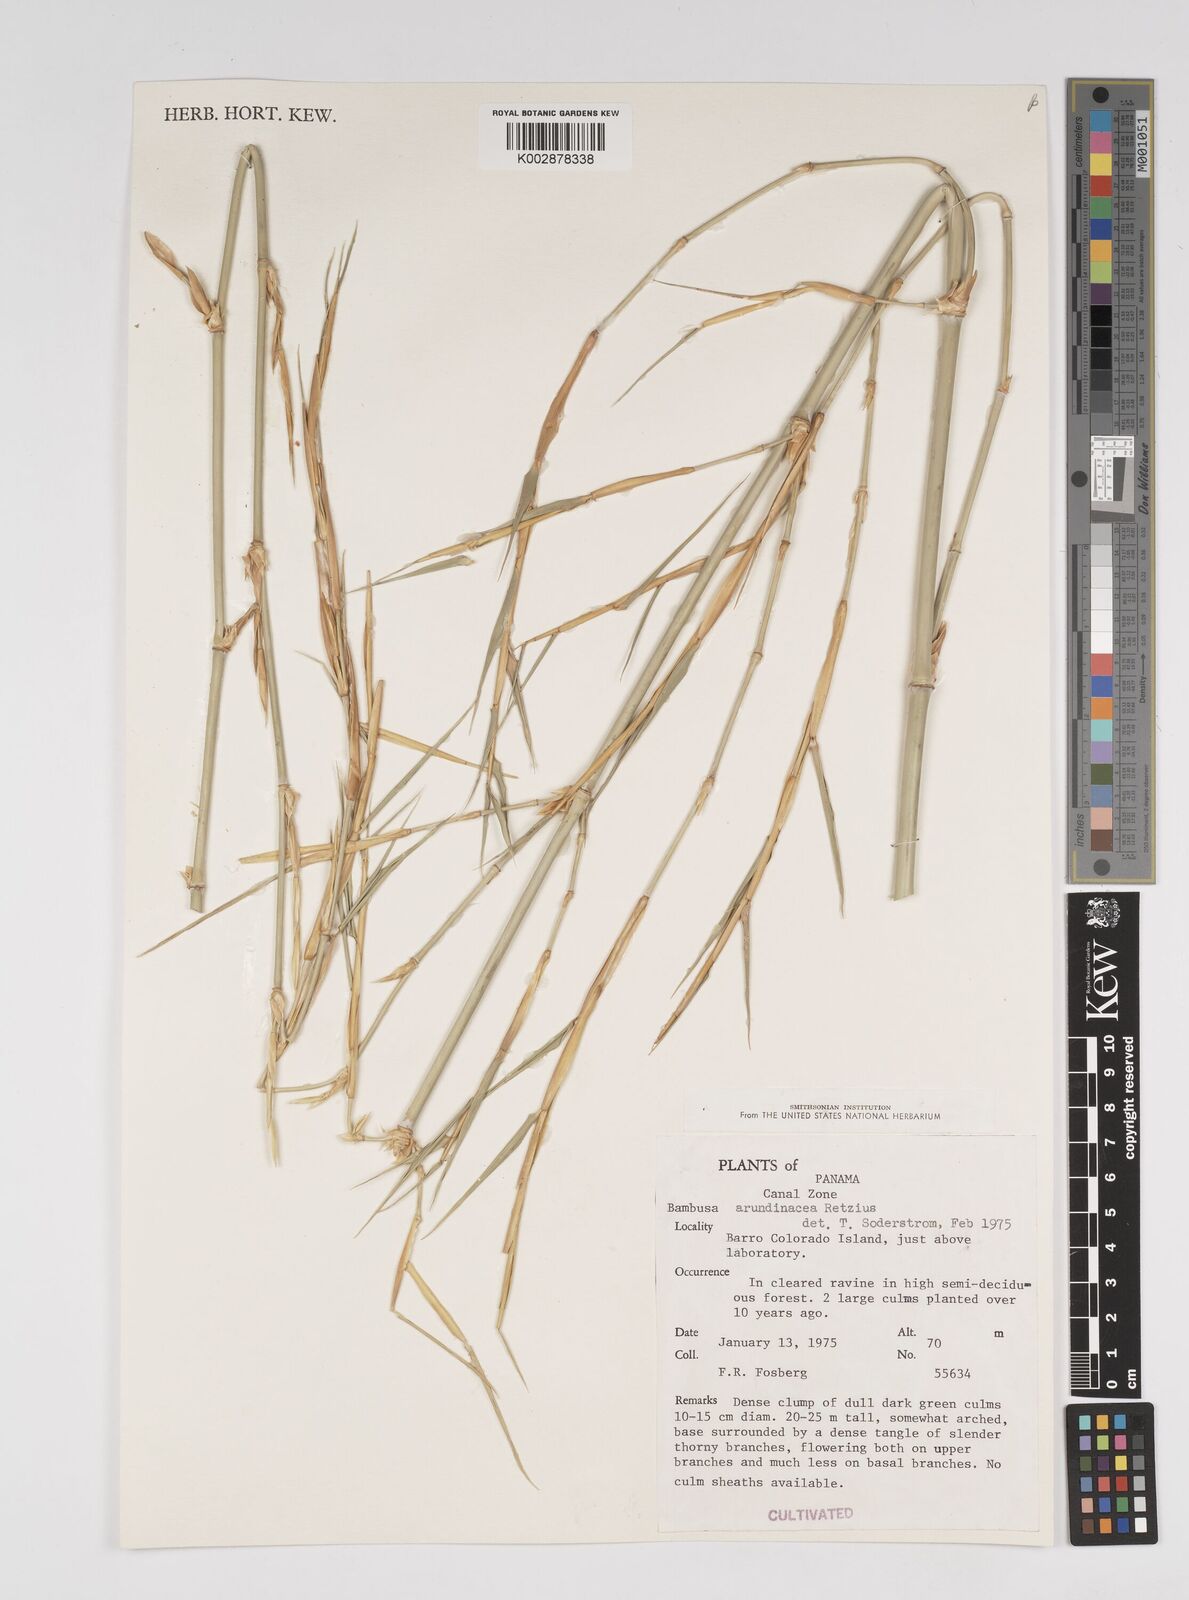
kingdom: Plantae
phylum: Tracheophyta
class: Liliopsida
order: Poales
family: Poaceae
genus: Bambusa
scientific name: Bambusa bambos
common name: Indian thorny bamboo
